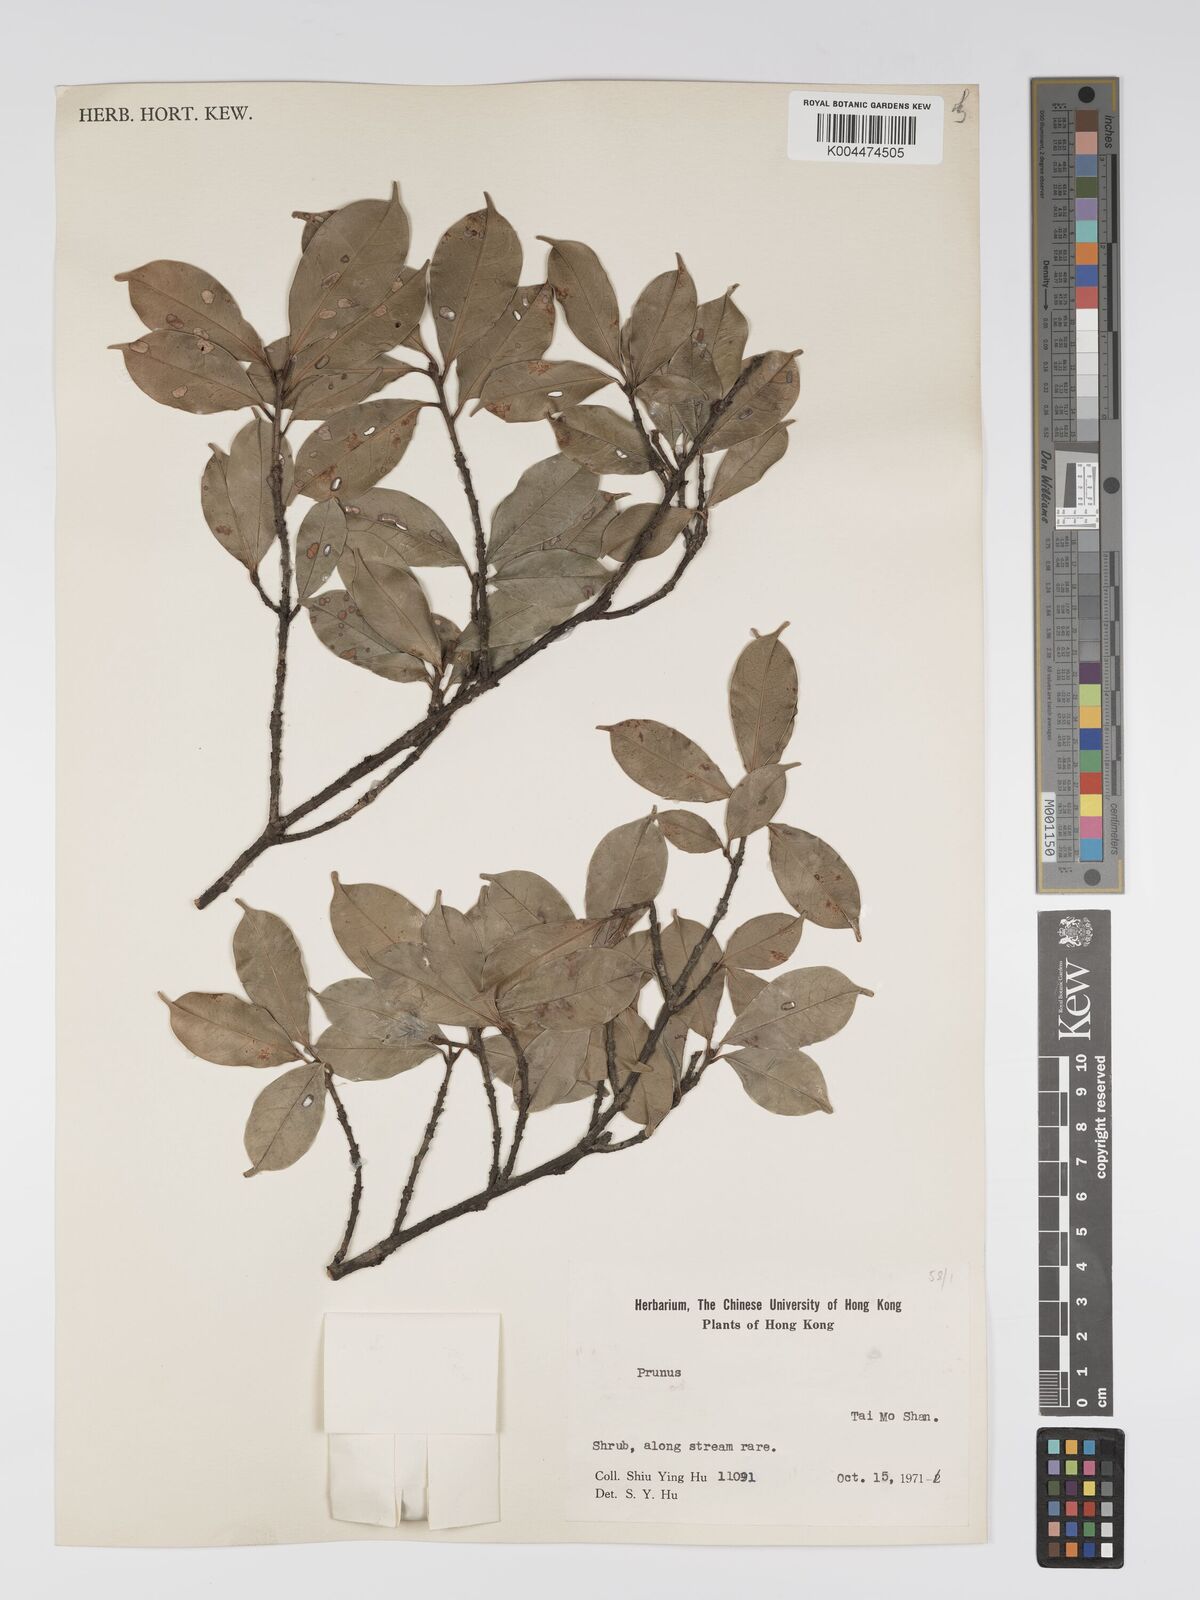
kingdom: Plantae
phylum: Tracheophyta
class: Magnoliopsida
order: Rosales
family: Rosaceae
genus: Prunus
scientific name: Prunus
